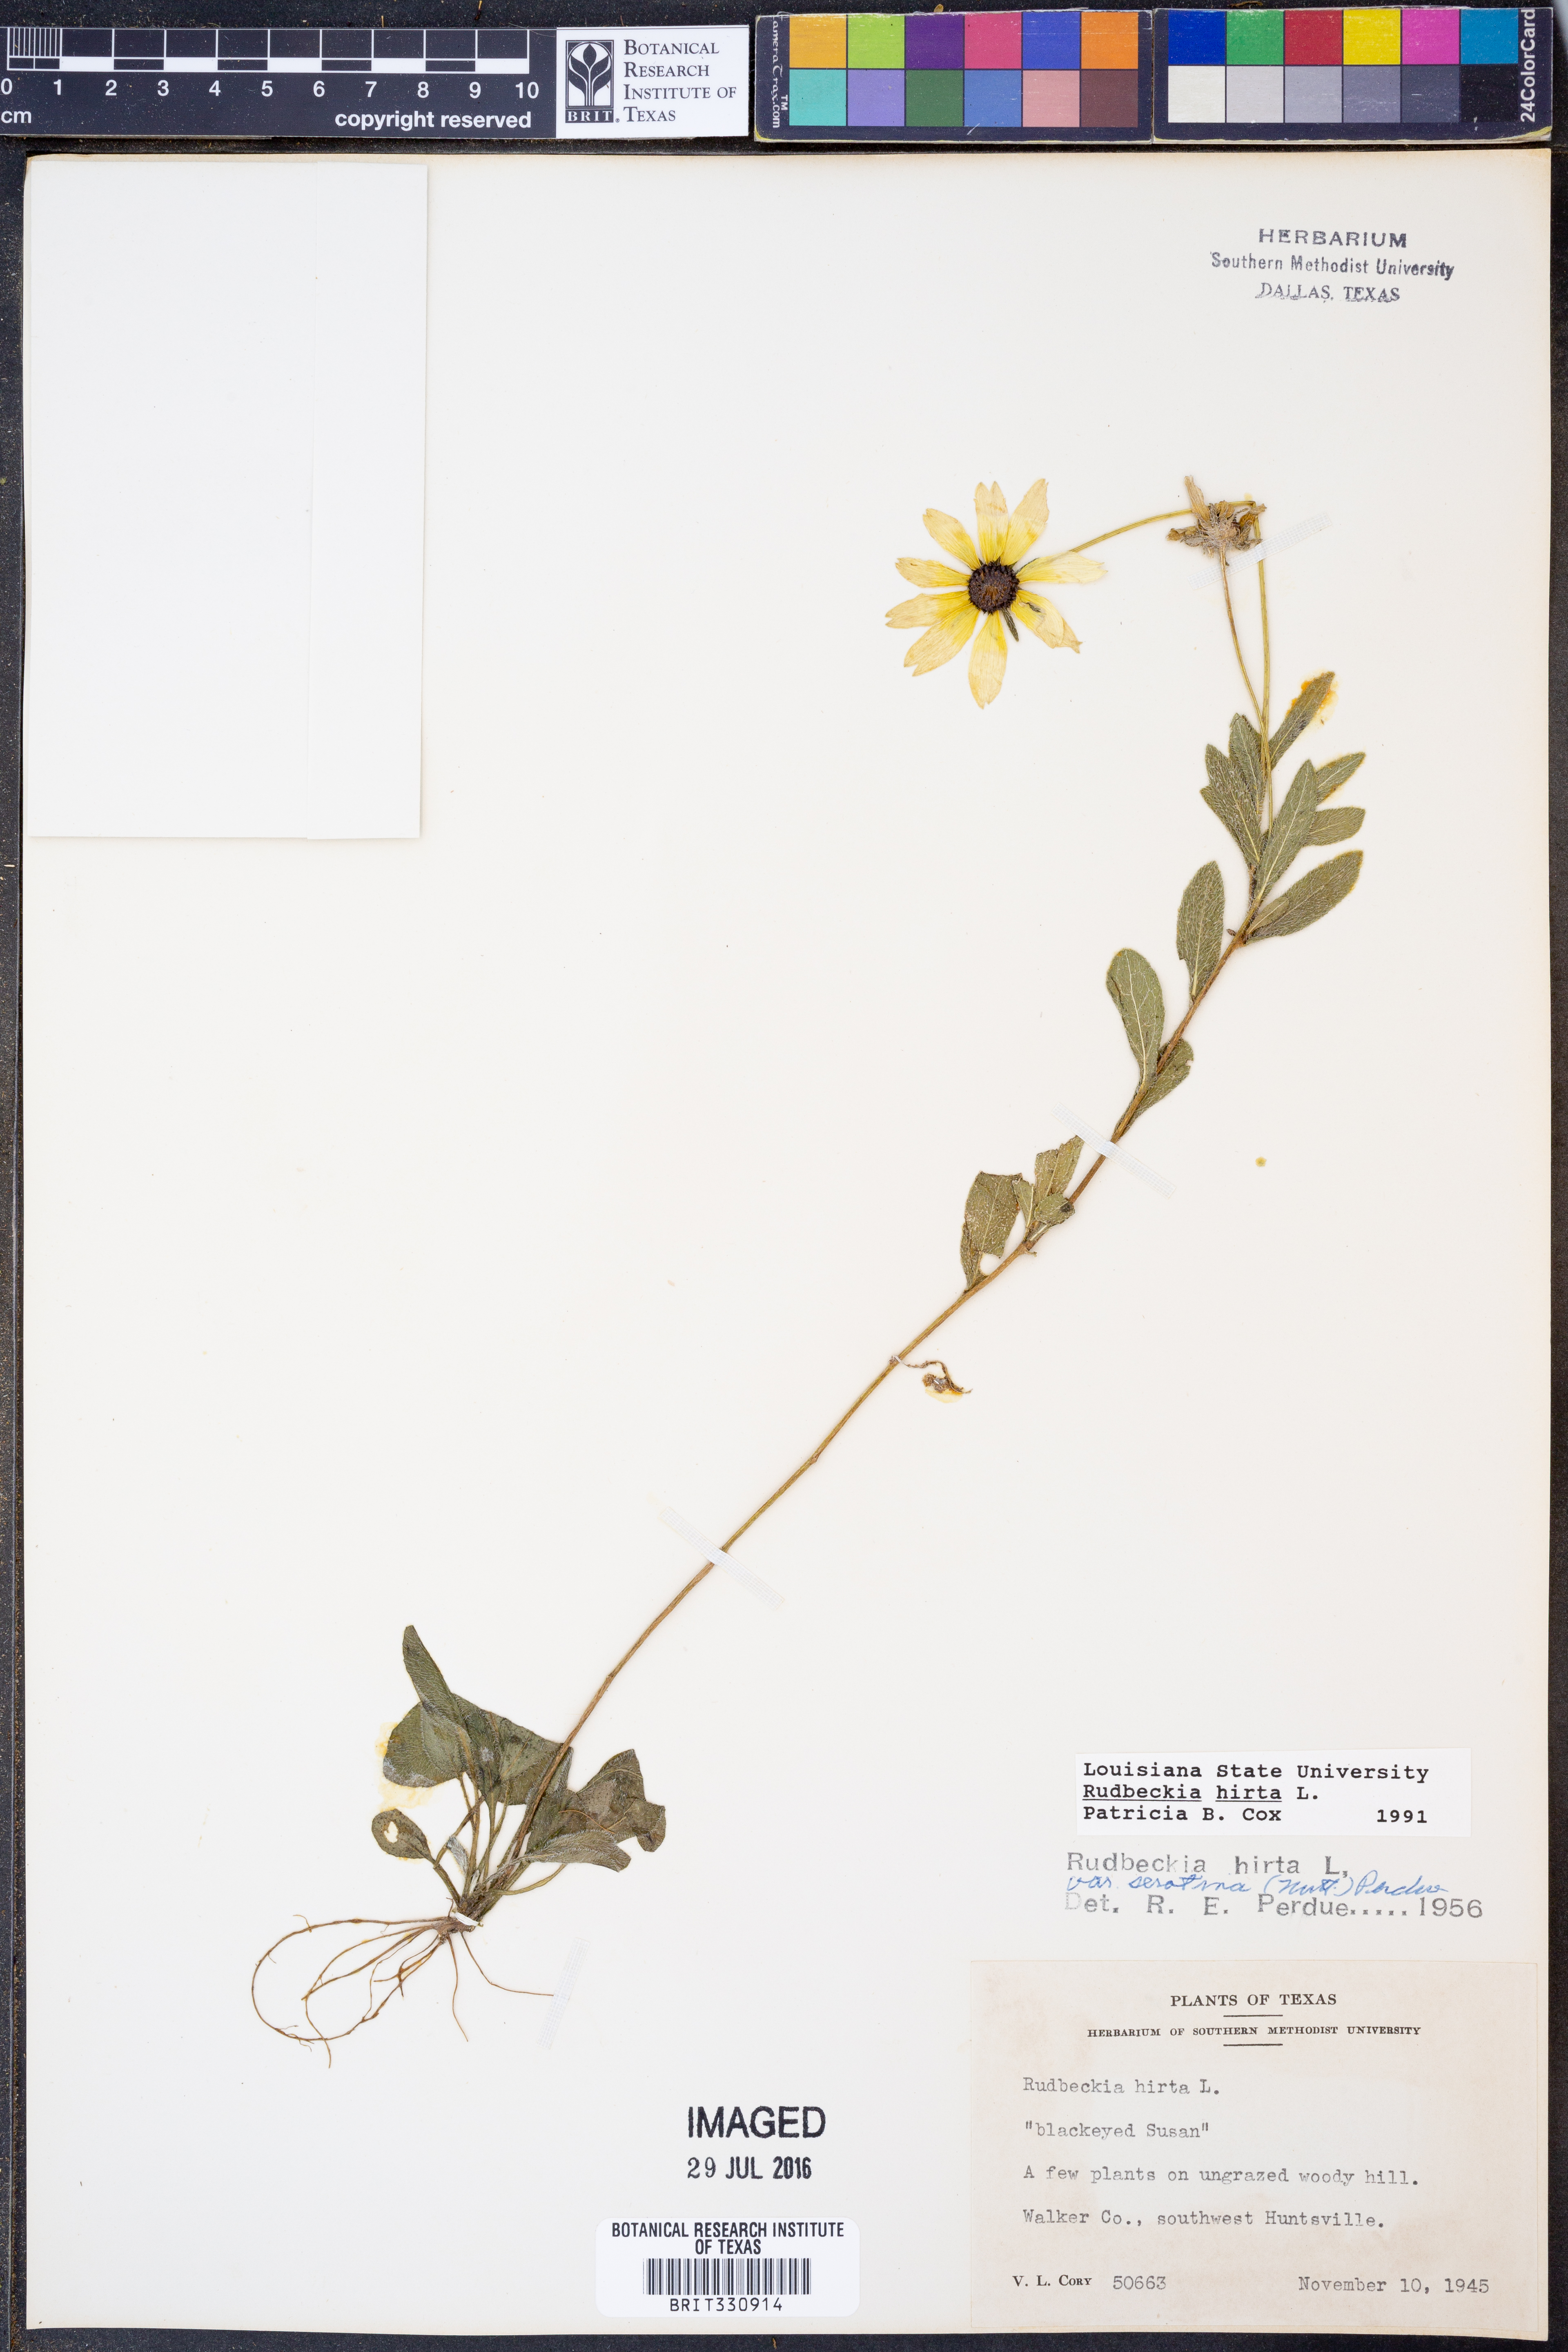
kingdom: Plantae
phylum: Tracheophyta
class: Magnoliopsida
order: Asterales
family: Asteraceae
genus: Rudbeckia
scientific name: Rudbeckia hirta
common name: Black-eyed-susan
